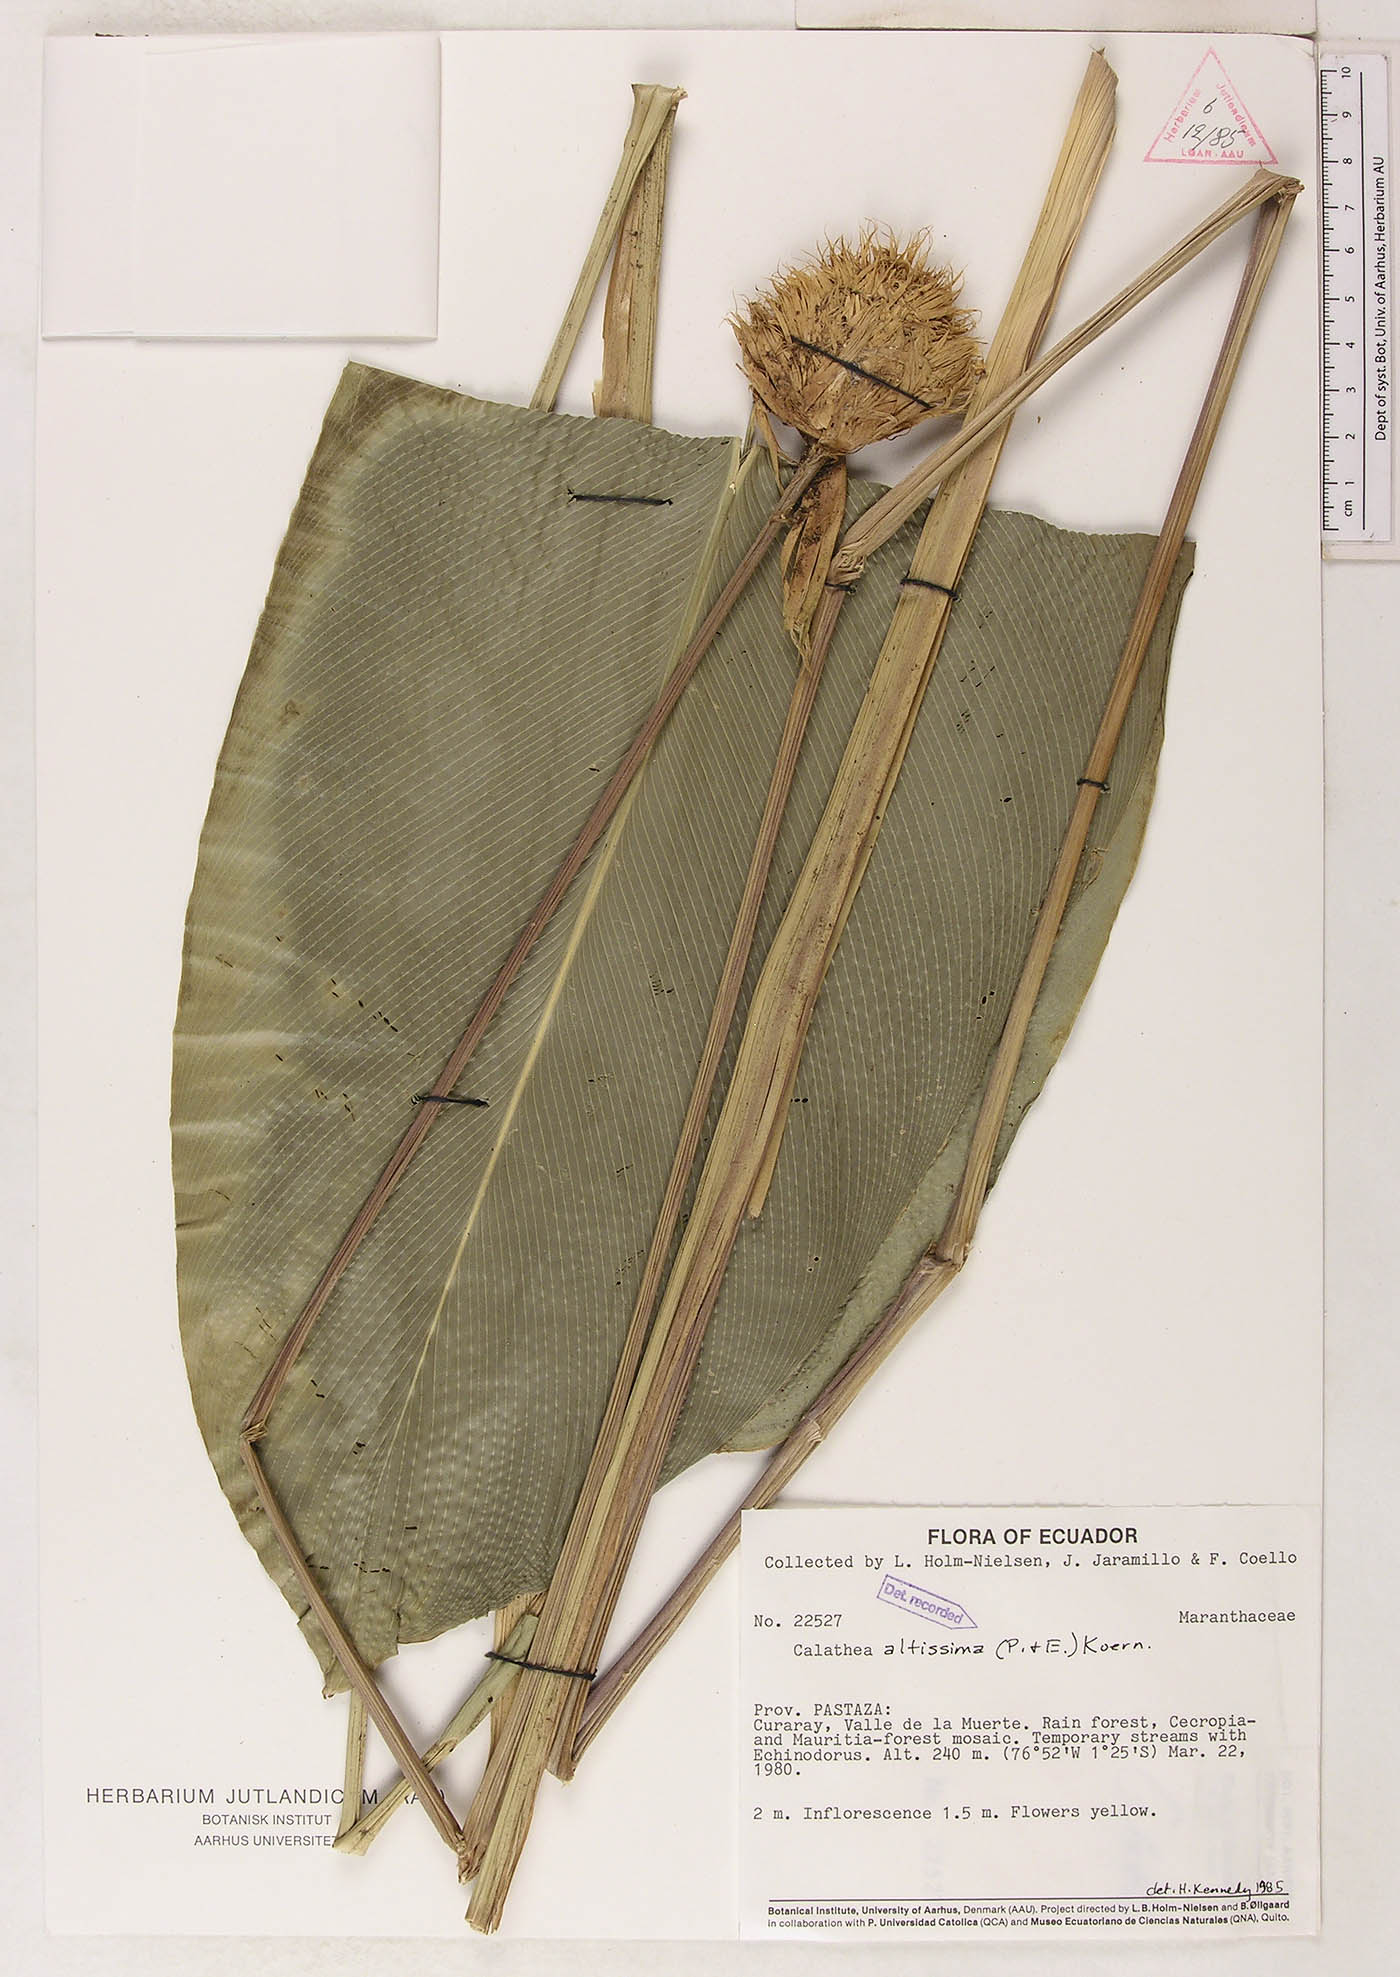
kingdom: Plantae
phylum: Tracheophyta
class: Liliopsida
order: Zingiberales
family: Marantaceae
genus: Goeppertia
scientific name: Goeppertia altissima
